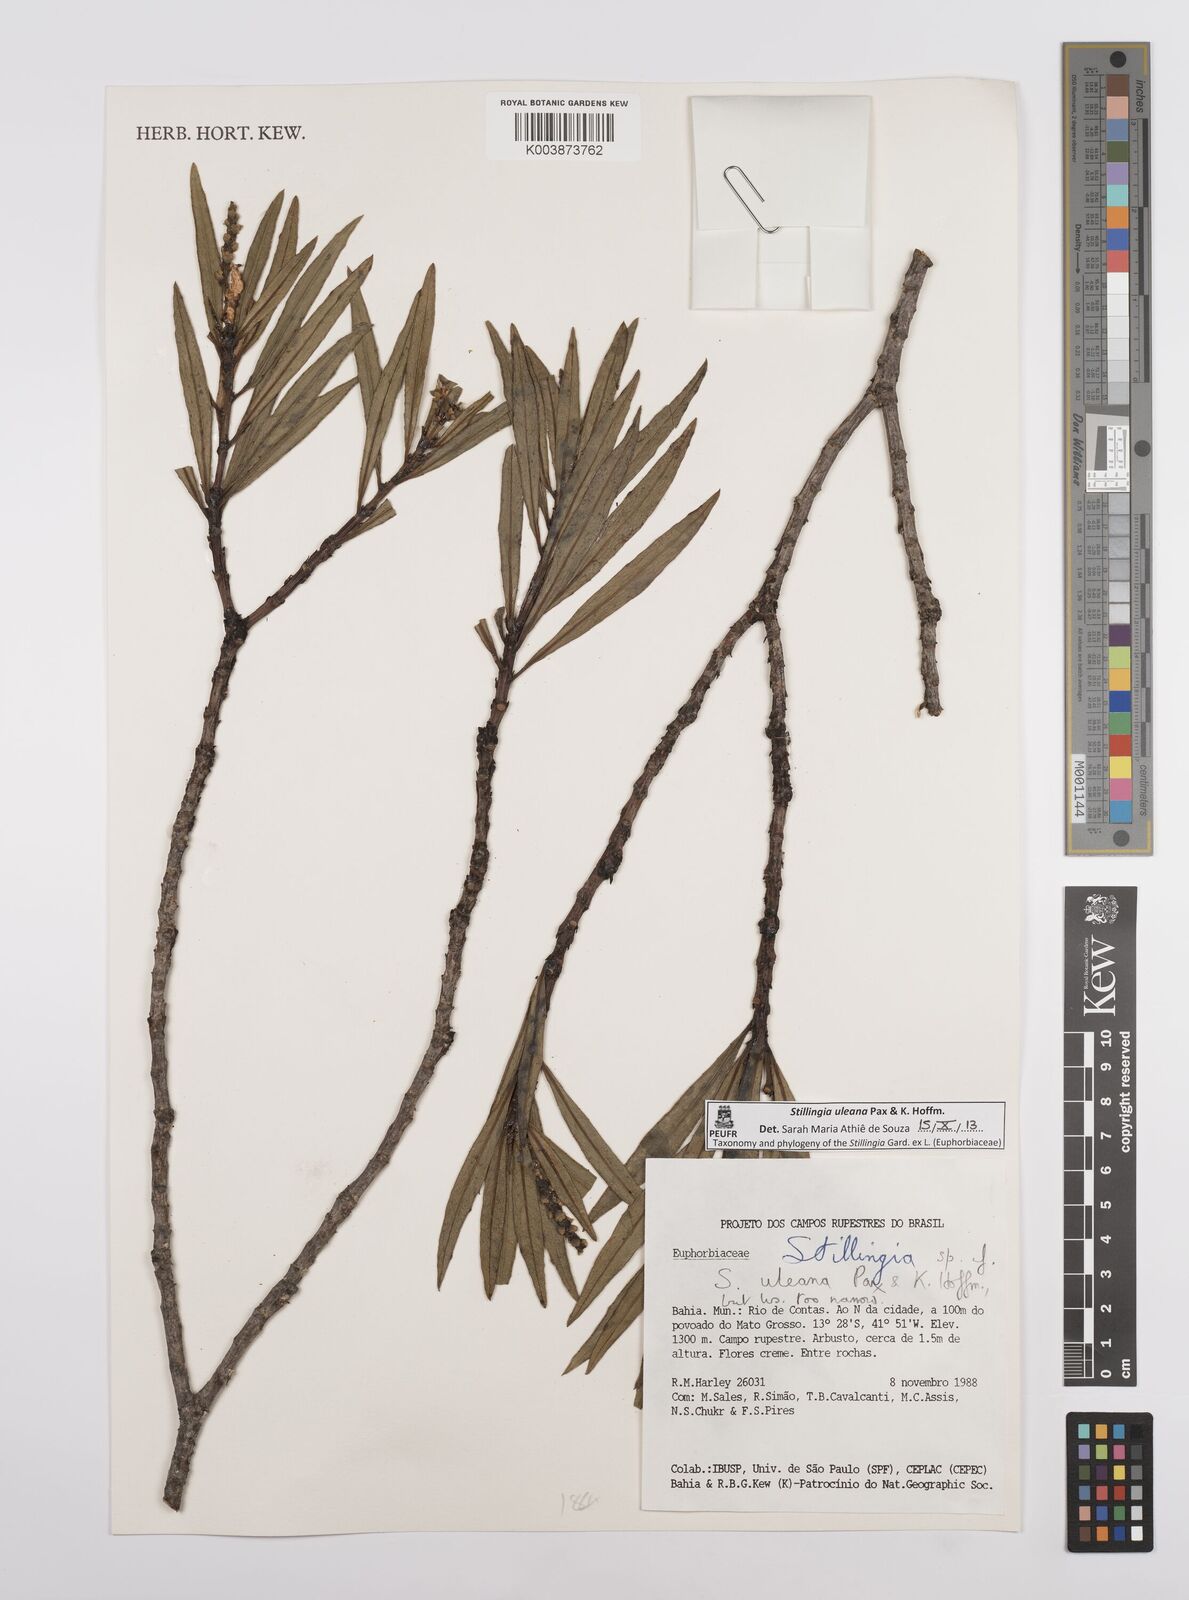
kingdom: Plantae
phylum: Tracheophyta
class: Magnoliopsida
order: Malpighiales
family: Euphorbiaceae
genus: Stillingia
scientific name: Stillingia uleana
